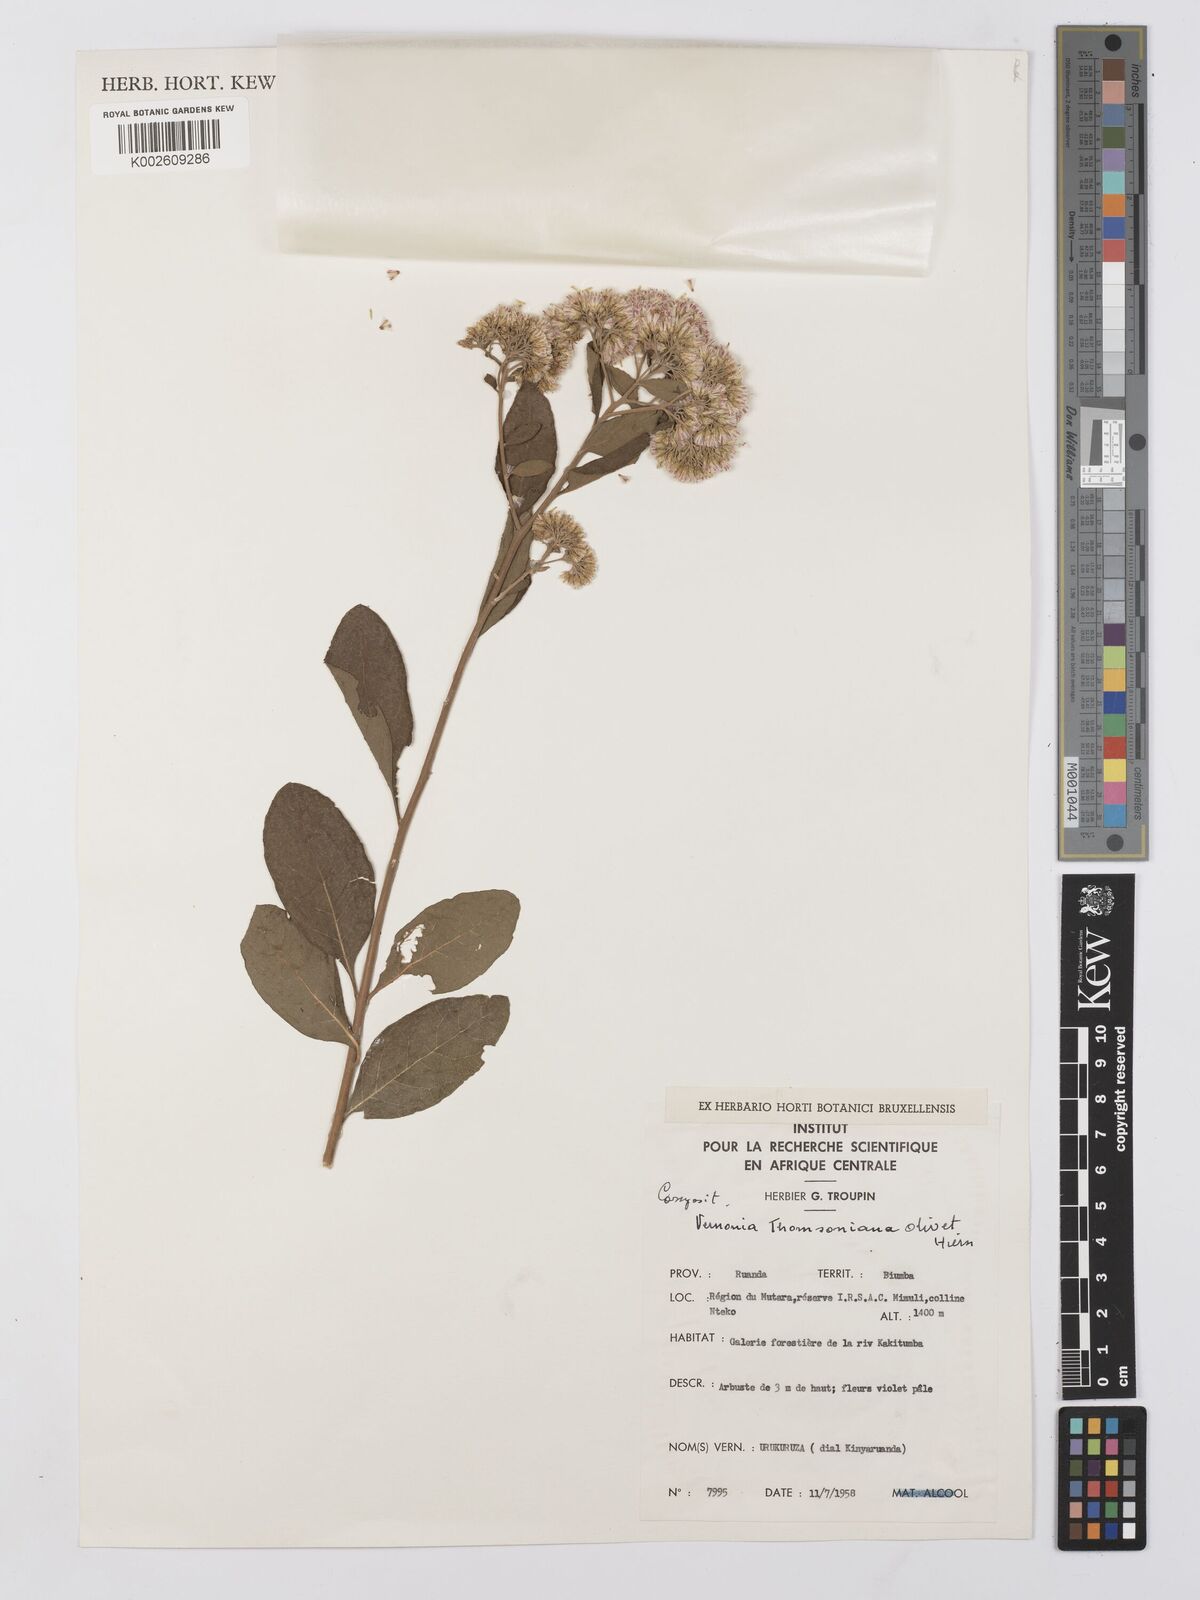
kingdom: Plantae
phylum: Tracheophyta
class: Magnoliopsida
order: Asterales
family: Asteraceae
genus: Gymnanthemum
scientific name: Gymnanthemum thomsonianum
